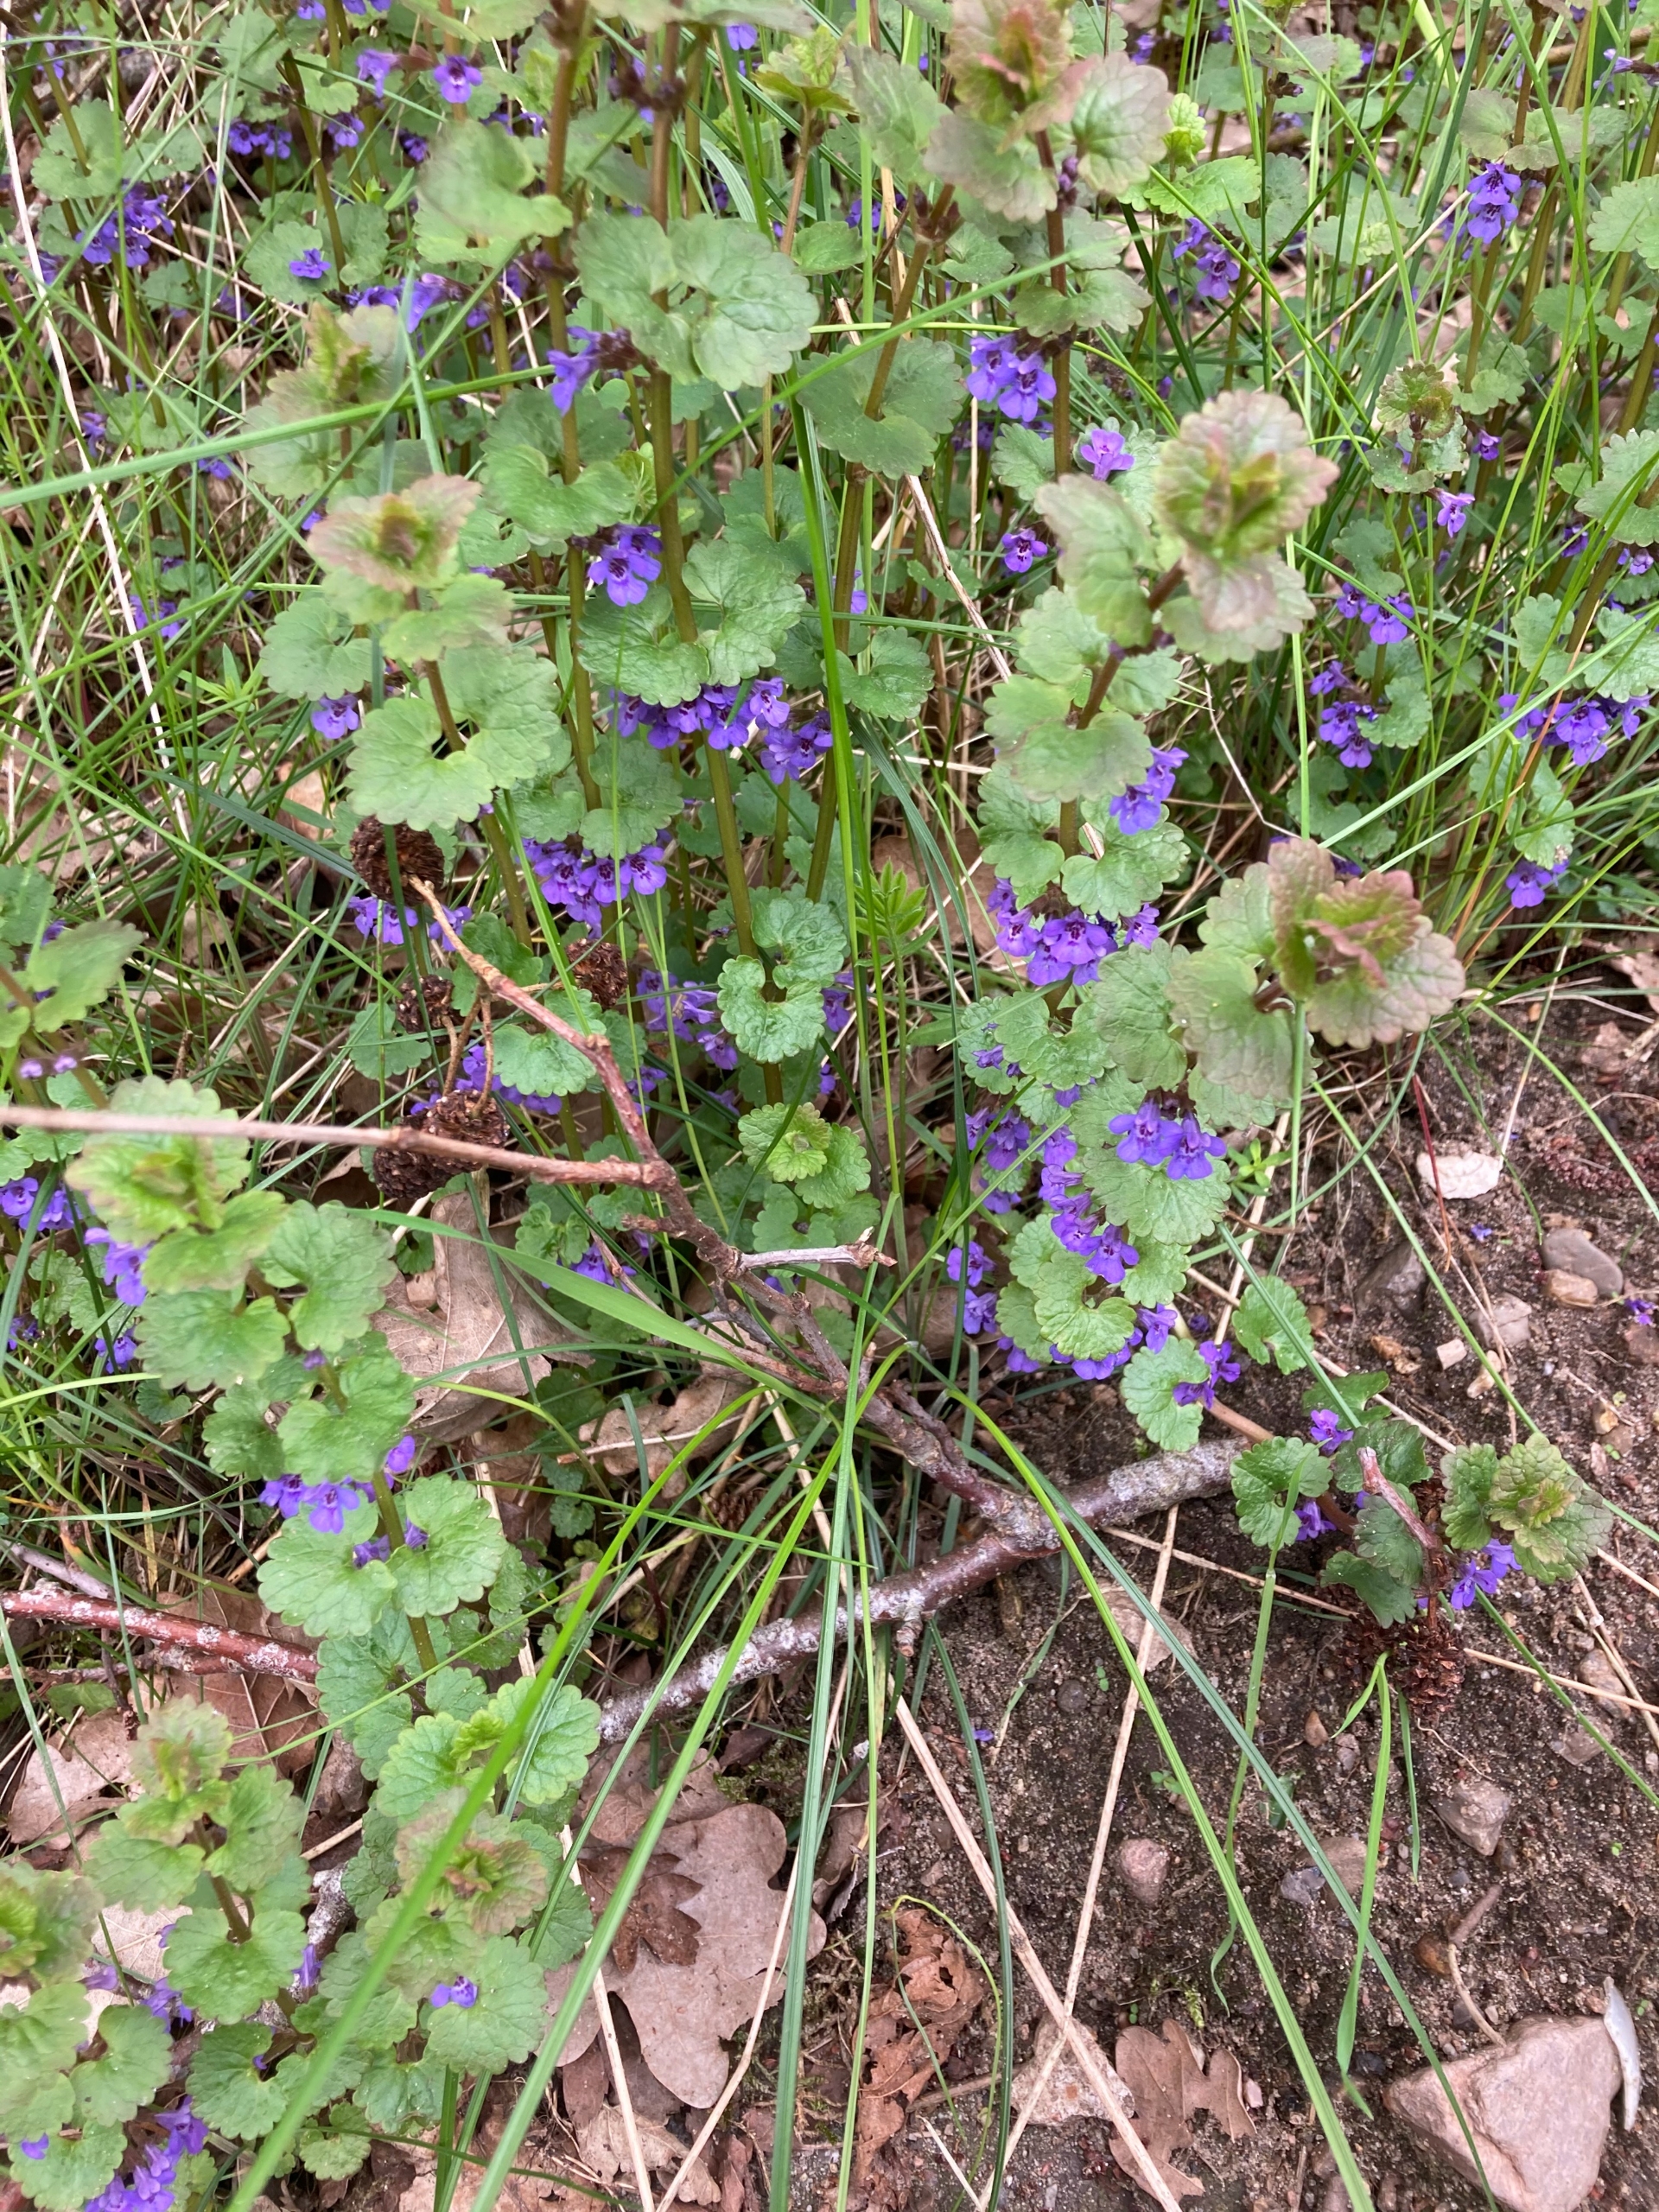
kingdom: Plantae
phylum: Tracheophyta
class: Magnoliopsida
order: Lamiales
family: Lamiaceae
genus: Glechoma
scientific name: Glechoma hederacea
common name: Korsknap
